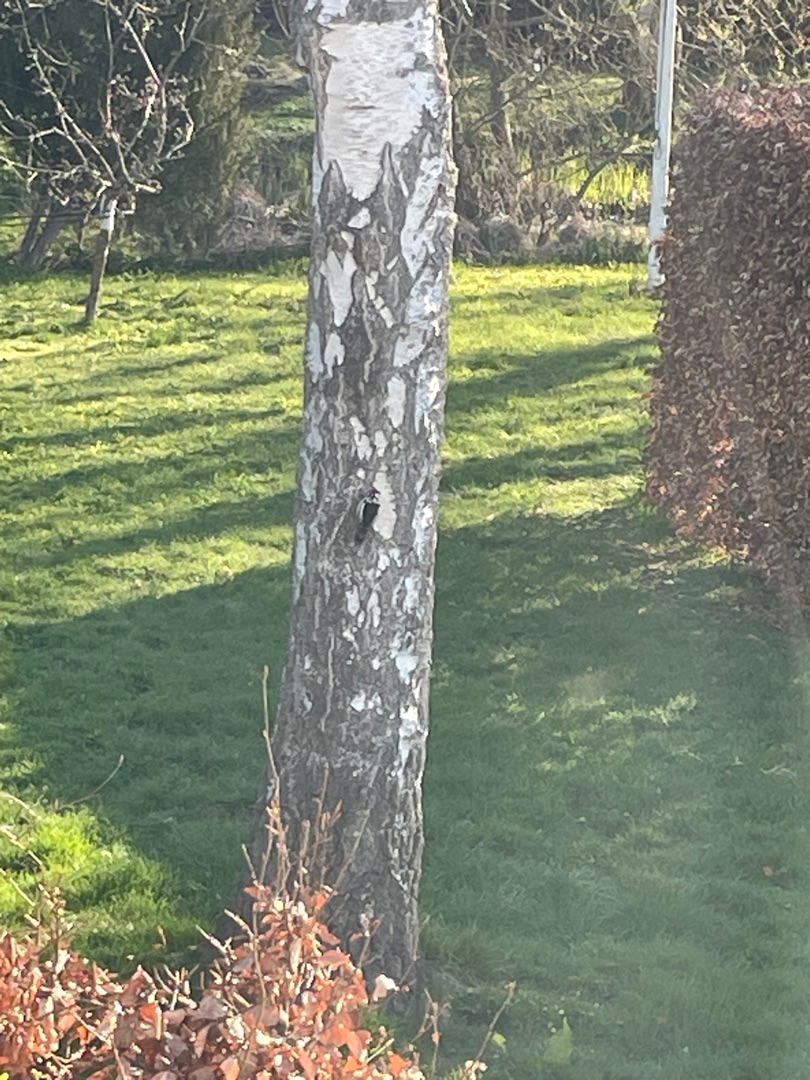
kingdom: Animalia
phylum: Chordata
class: Aves
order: Piciformes
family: Picidae
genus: Dendrocopos
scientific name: Dendrocopos major
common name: Stor flagspætte
